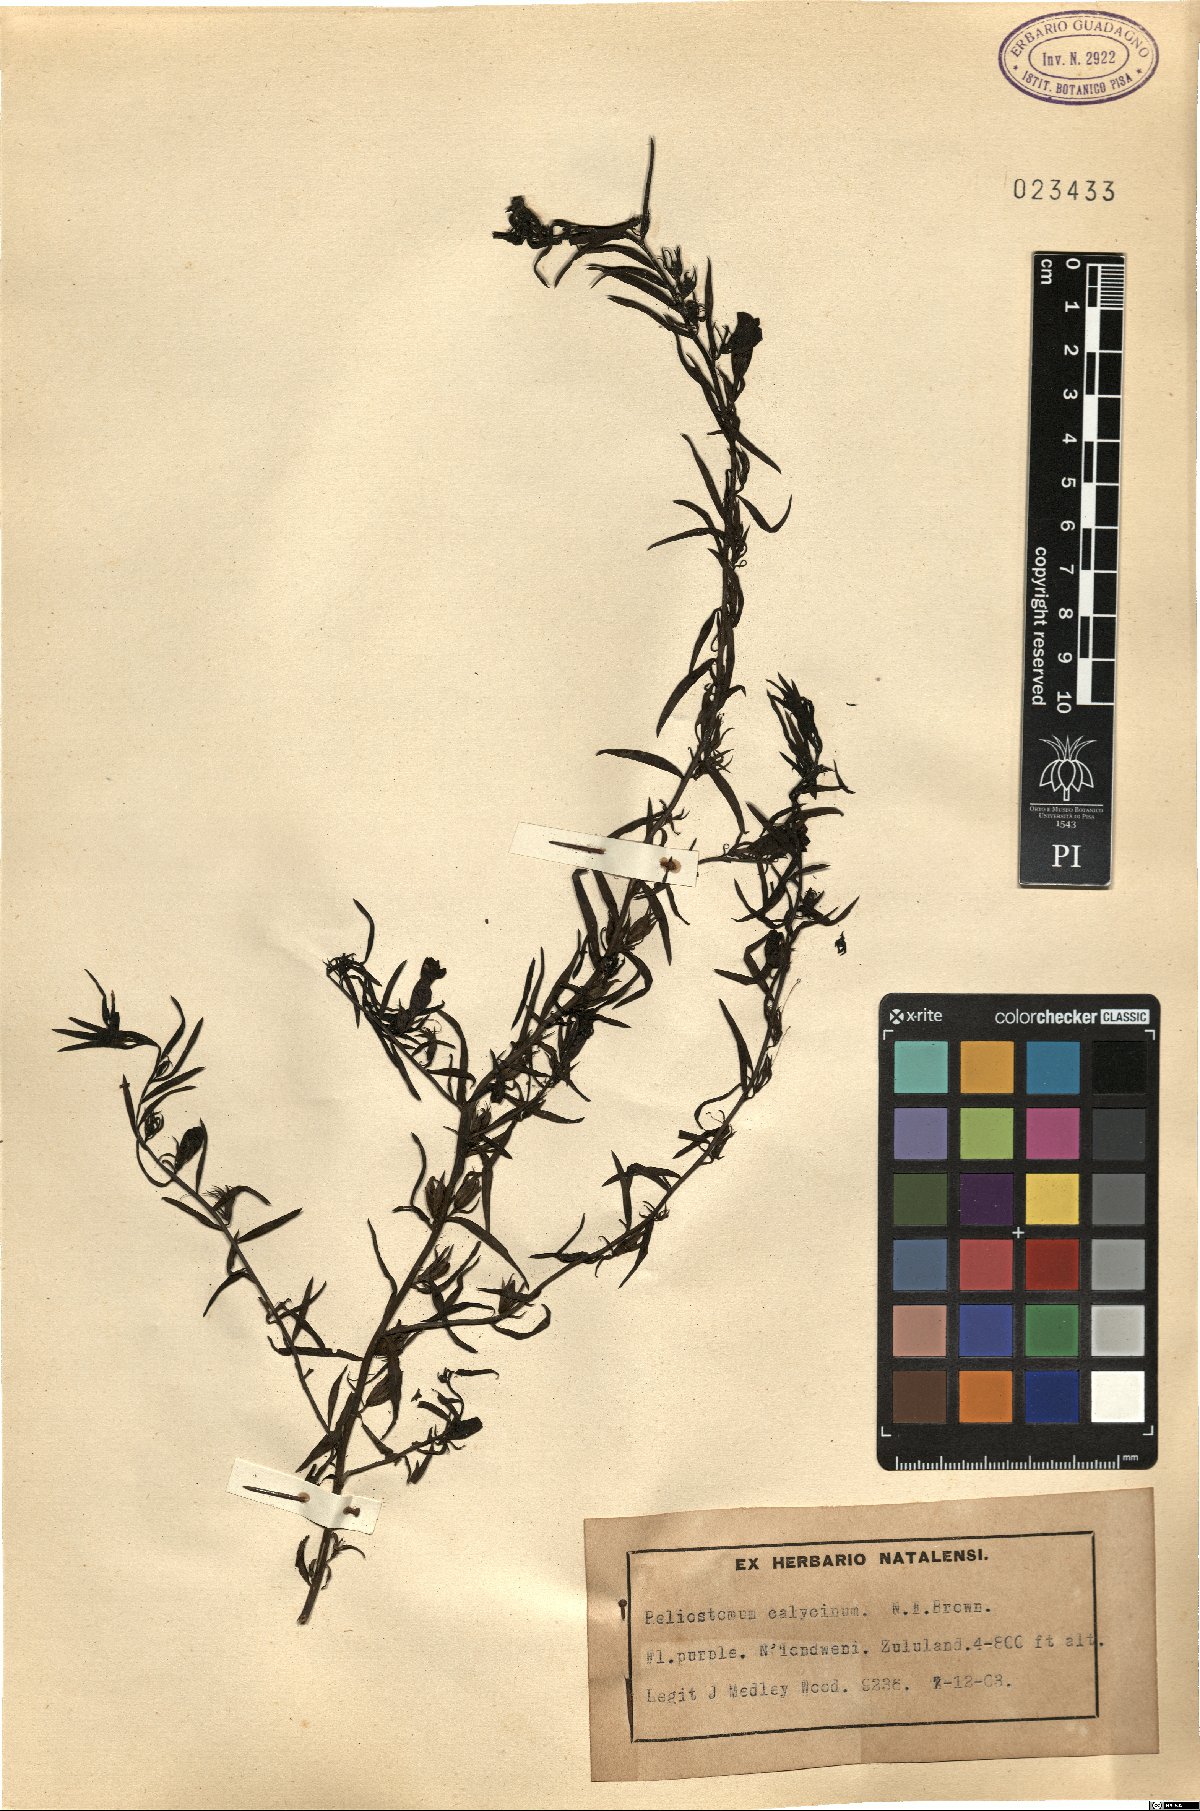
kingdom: Plantae
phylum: Tracheophyta
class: Magnoliopsida
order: Lamiales
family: Scrophulariaceae
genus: Peliostomum
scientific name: Peliostomum calycinum
